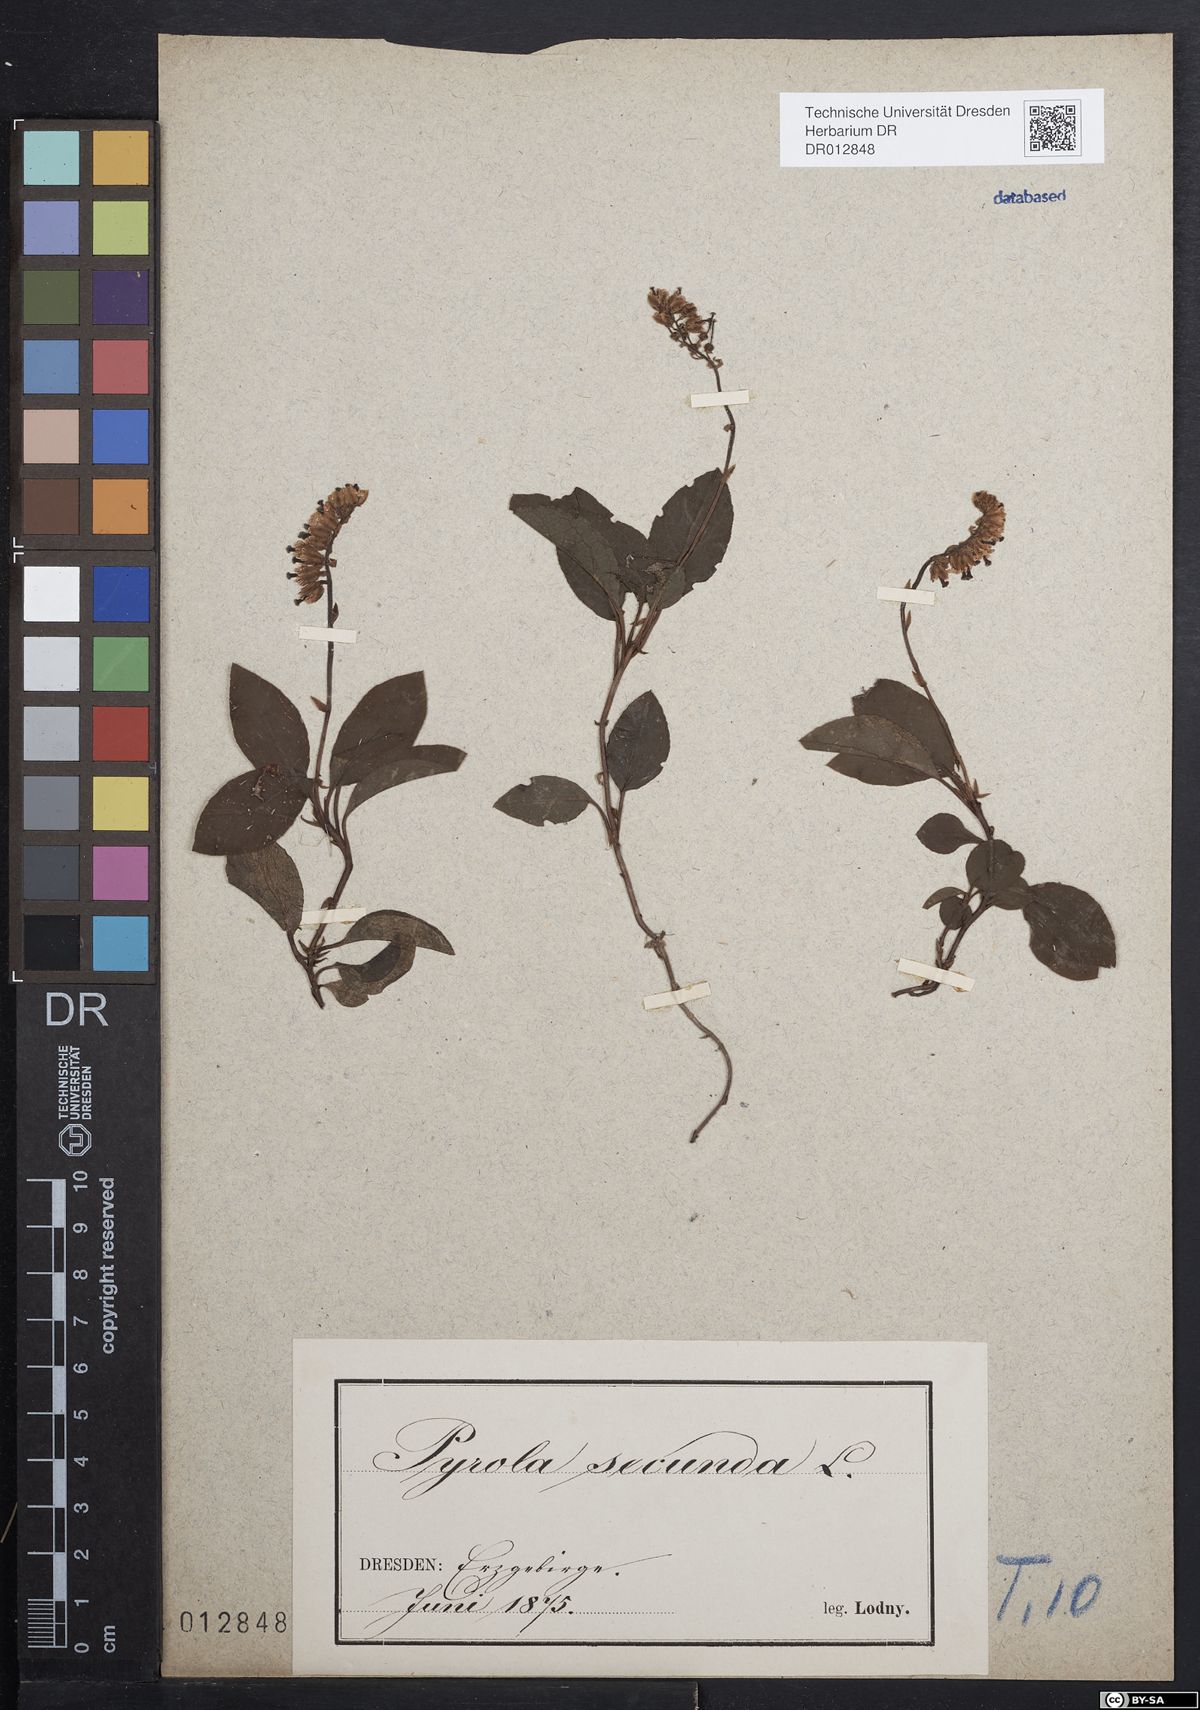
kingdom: Plantae
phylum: Tracheophyta
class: Magnoliopsida
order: Ericales
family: Ericaceae
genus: Orthilia
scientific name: Orthilia secunda
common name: One-sided orthilia
